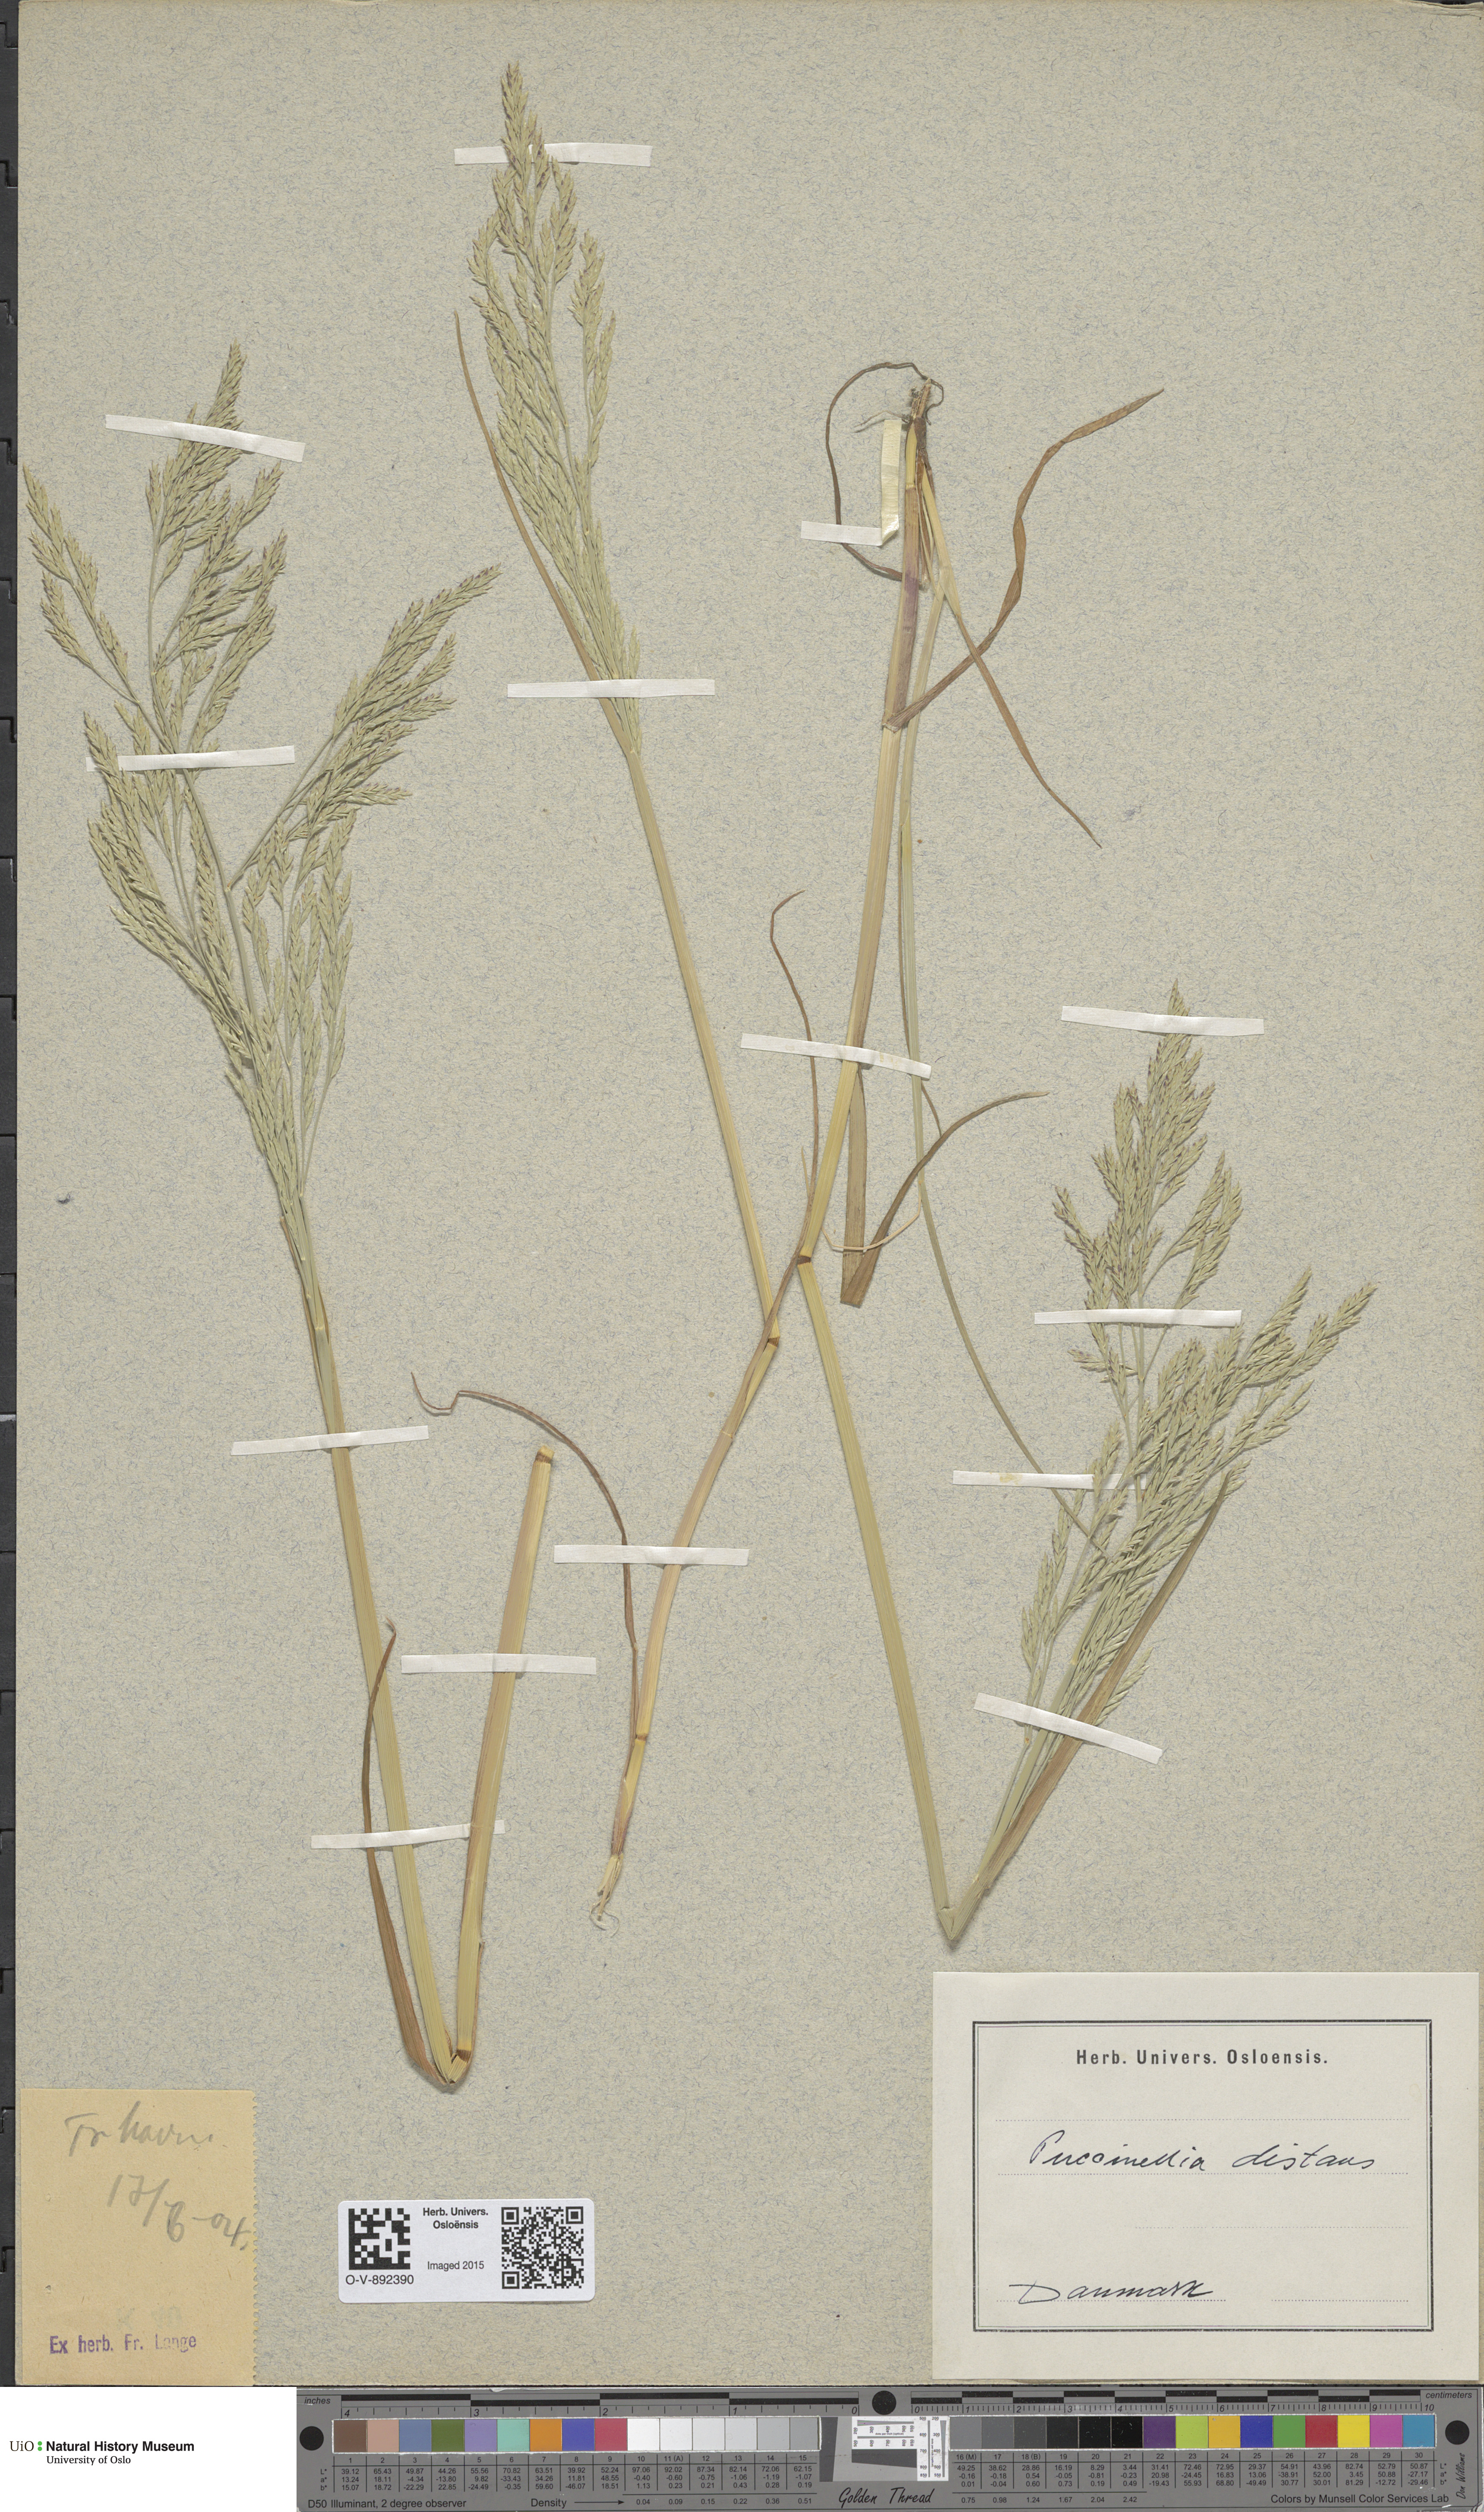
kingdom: Plantae
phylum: Tracheophyta
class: Liliopsida
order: Poales
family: Poaceae
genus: Puccinellia
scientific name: Puccinellia distans
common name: Weeping alkaligrass
